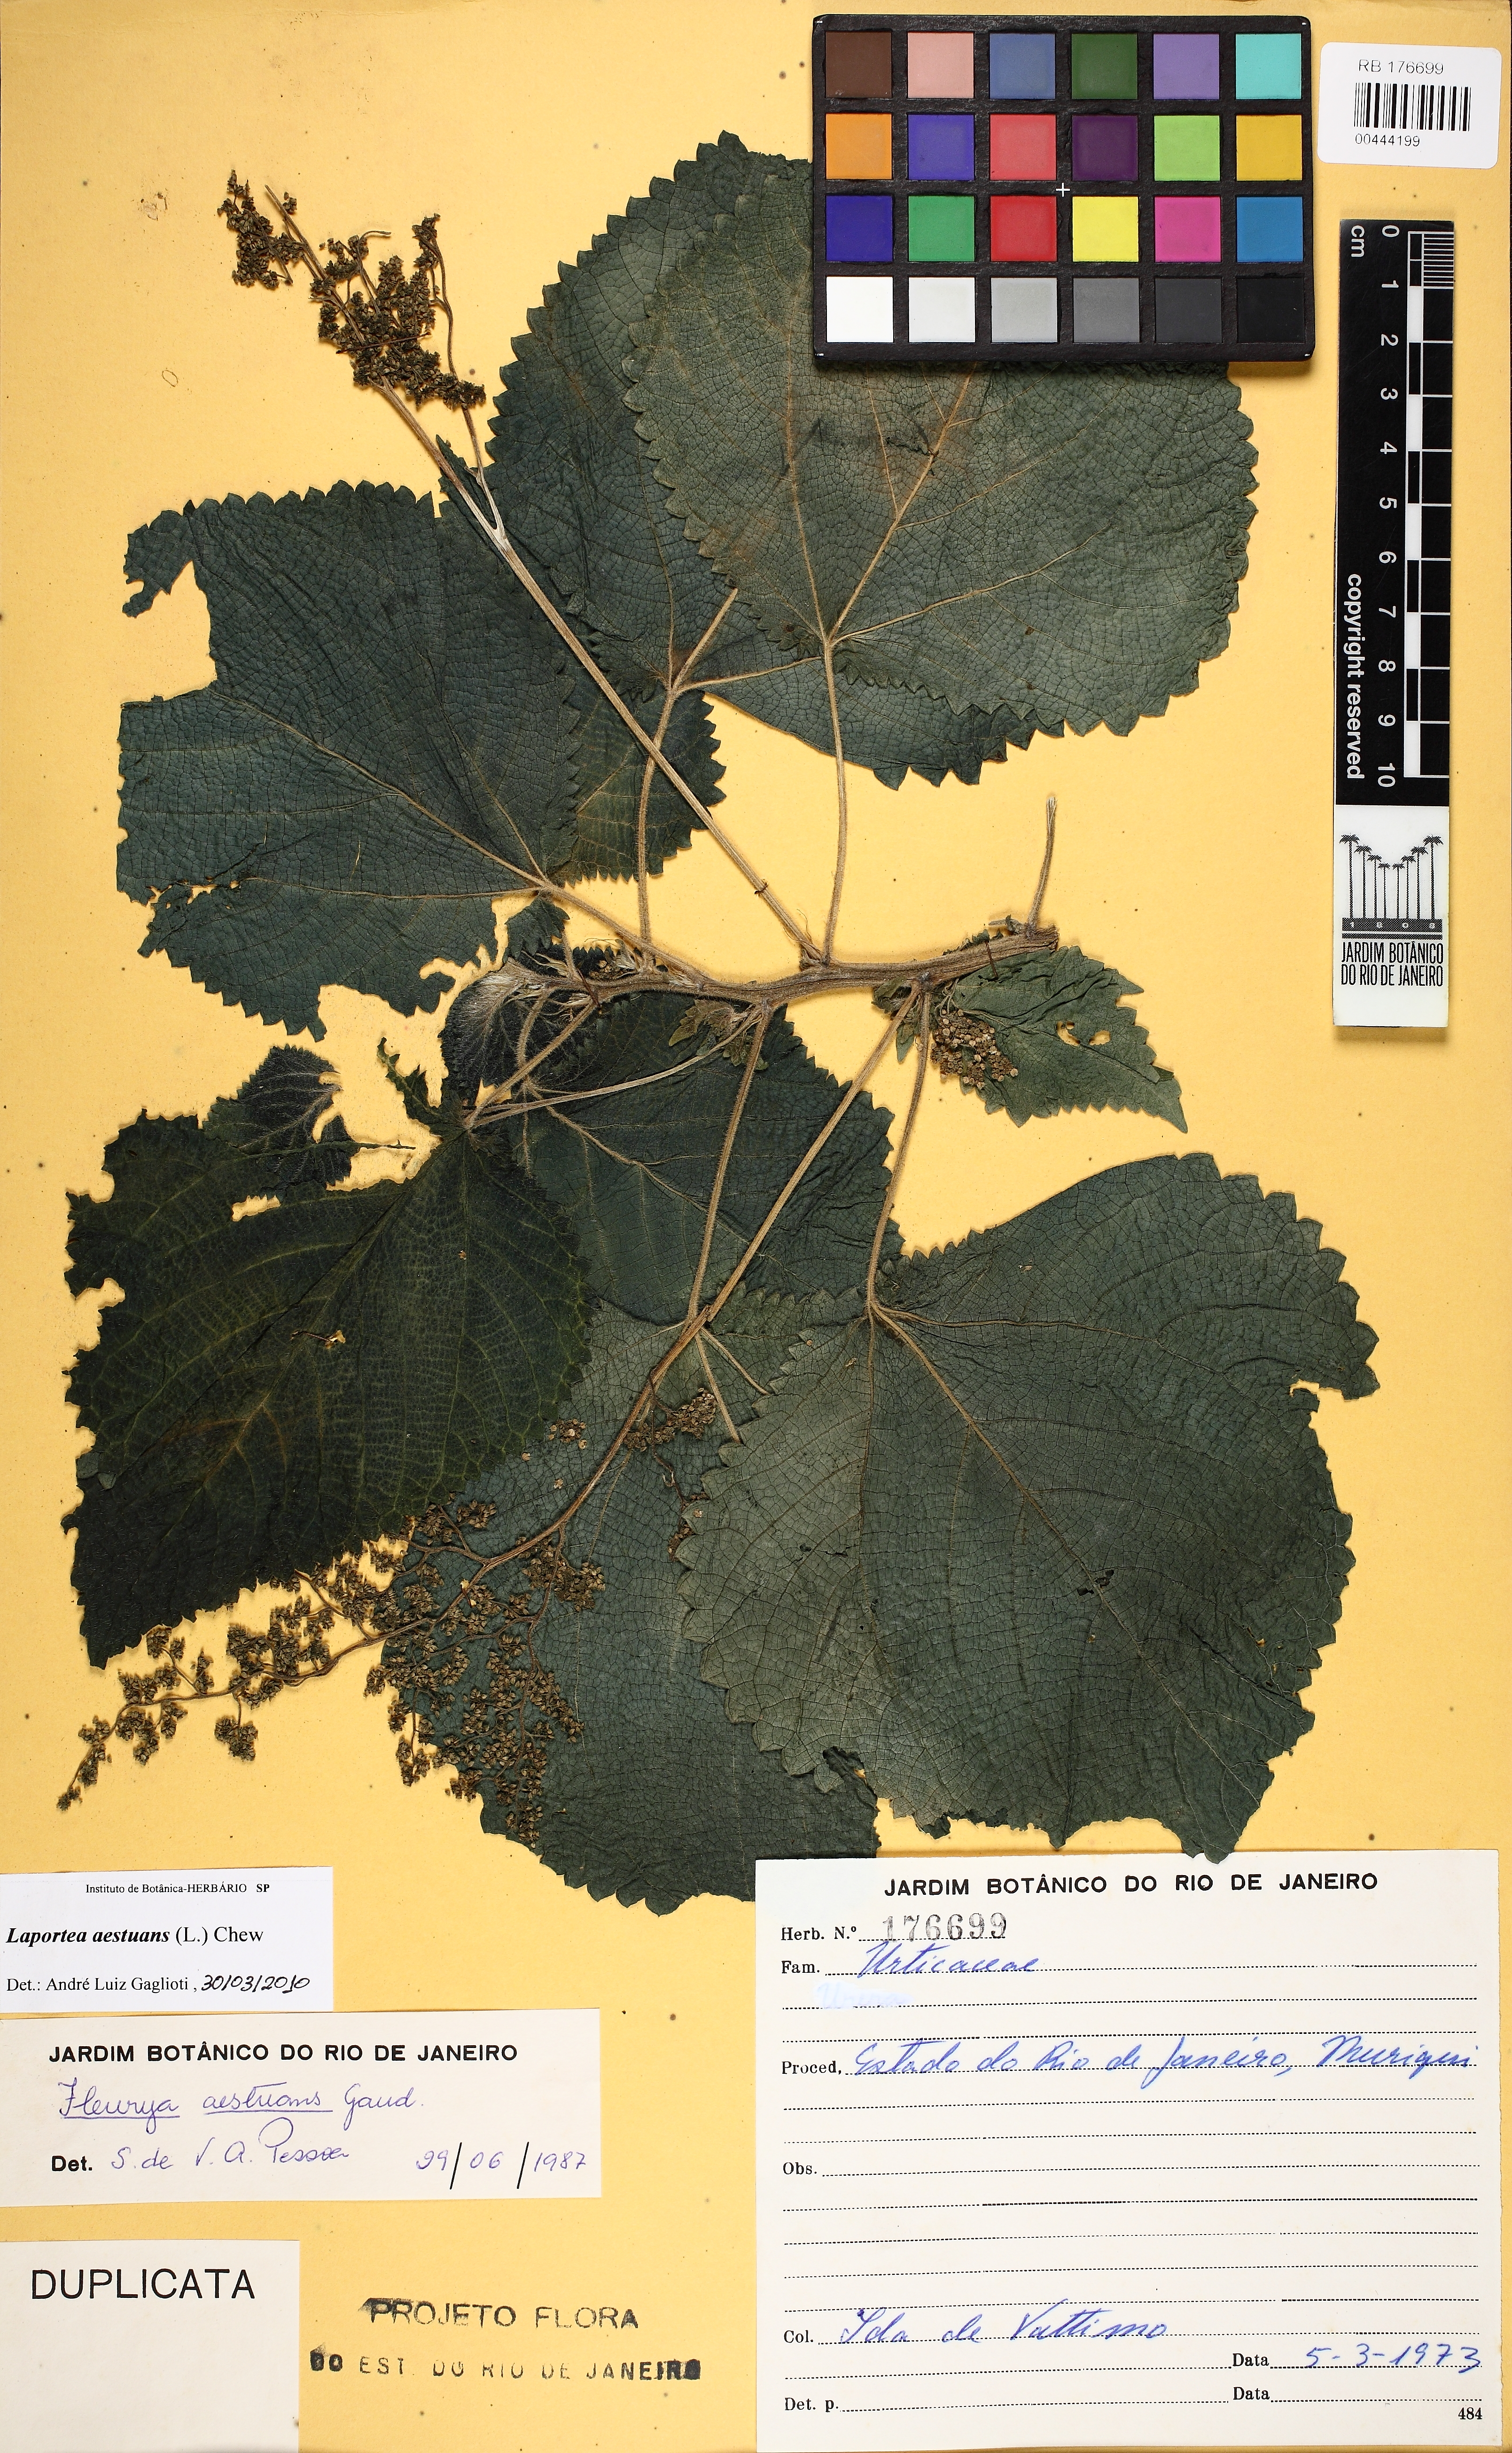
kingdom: Plantae
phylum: Tracheophyta
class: Magnoliopsida
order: Rosales
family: Urticaceae
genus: Laportea
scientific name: Laportea aestuans
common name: West indian woodnettle
